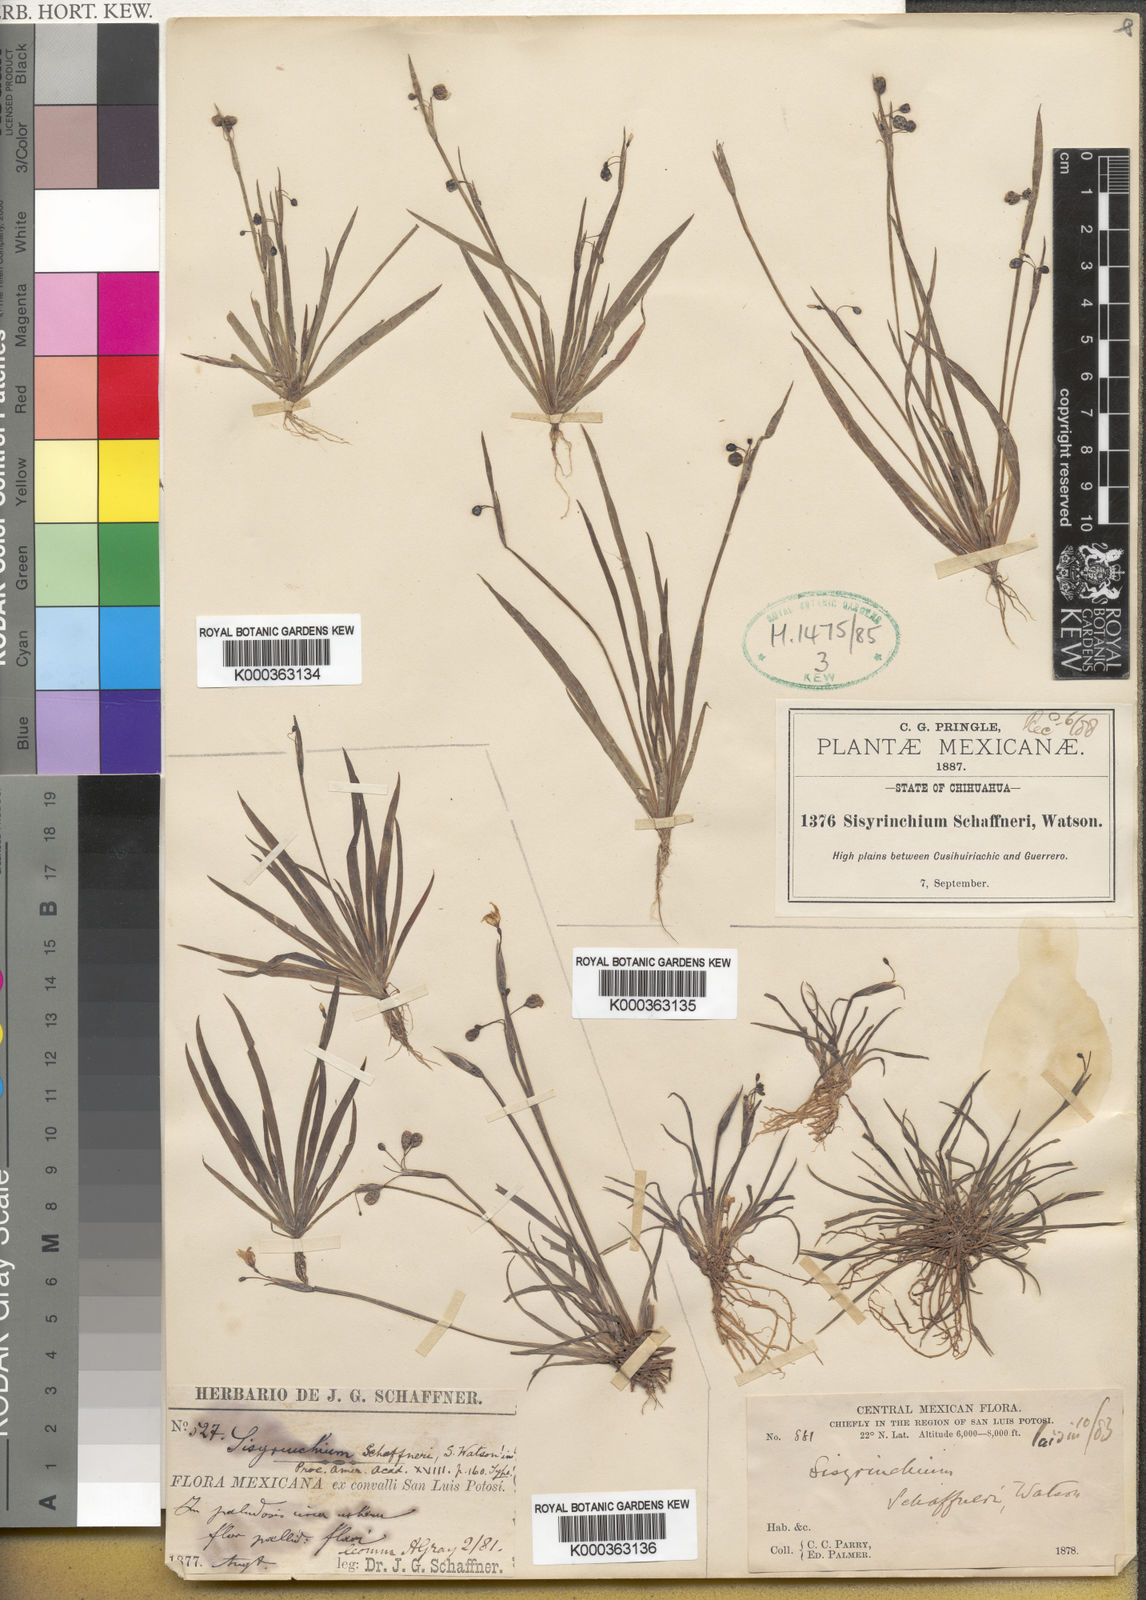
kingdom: Plantae
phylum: Tracheophyta
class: Liliopsida
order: Asparagales
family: Iridaceae
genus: Sisyrinchium
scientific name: Sisyrinchium schaffneri
